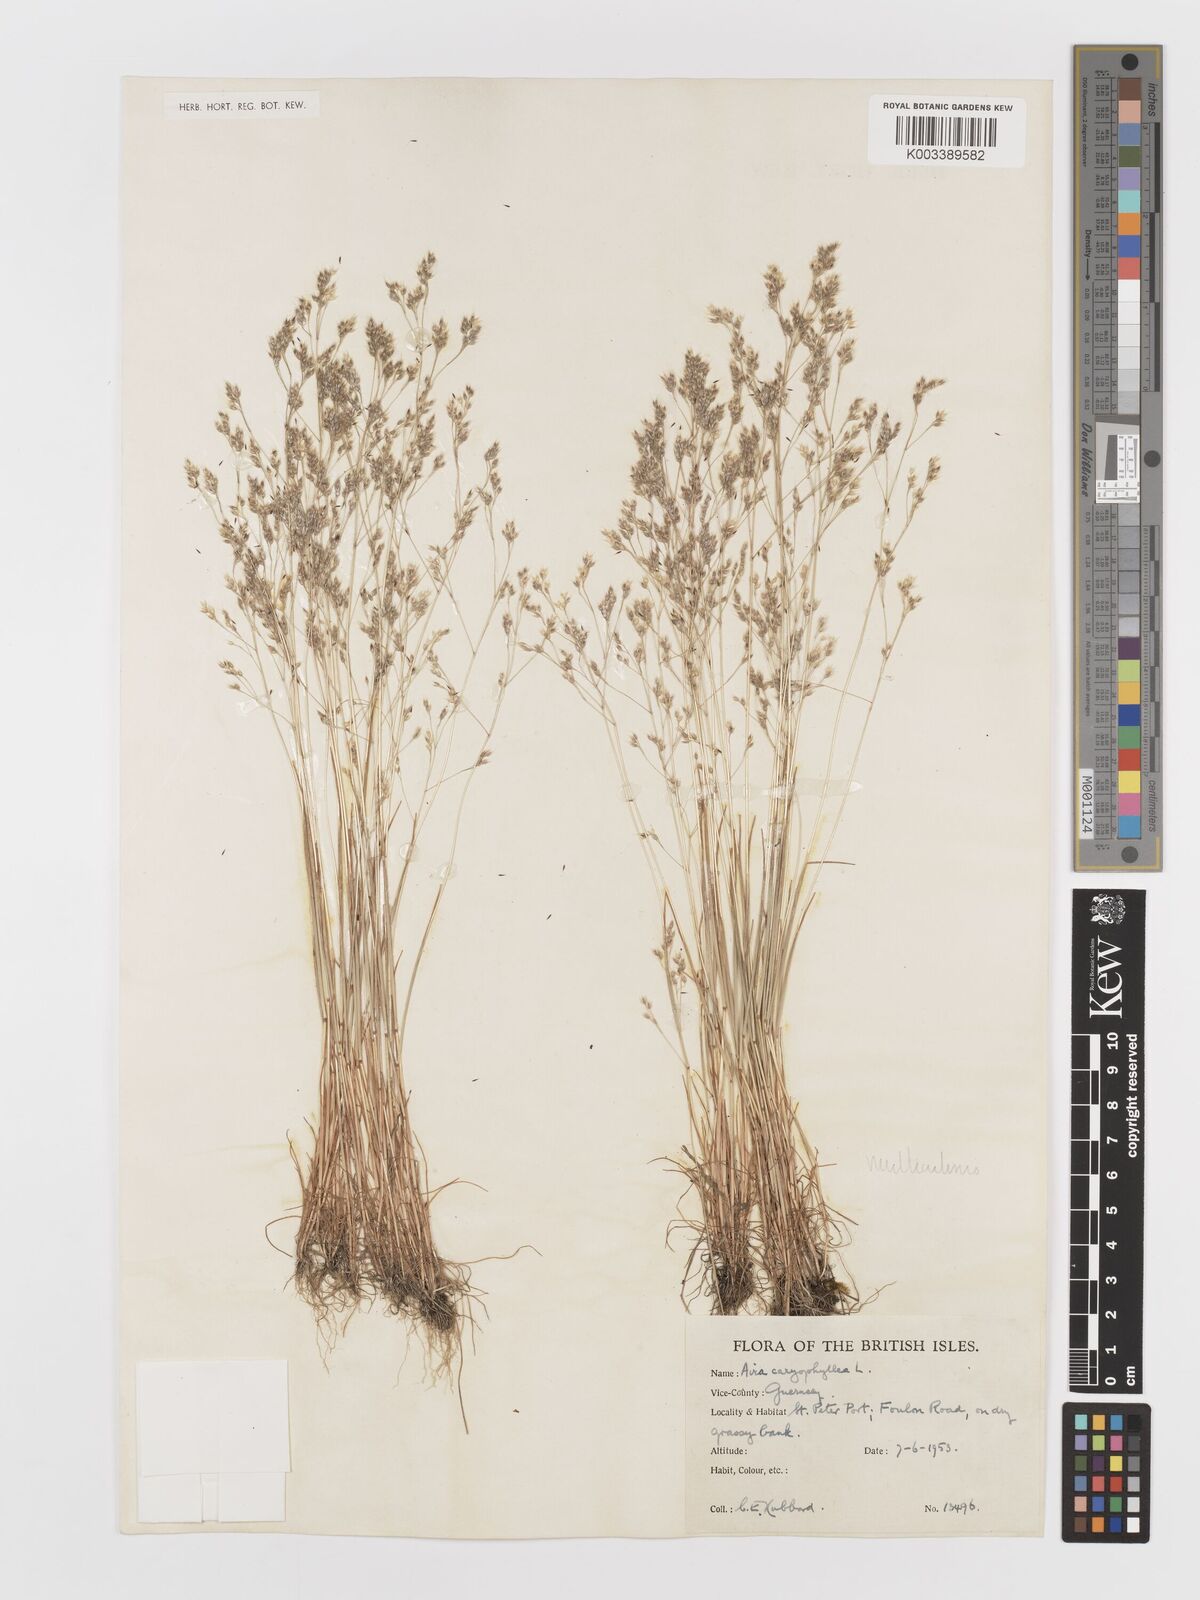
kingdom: Plantae
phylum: Tracheophyta
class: Liliopsida
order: Poales
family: Poaceae
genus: Aira
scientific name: Aira caryophyllea
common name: Silver hairgrass
